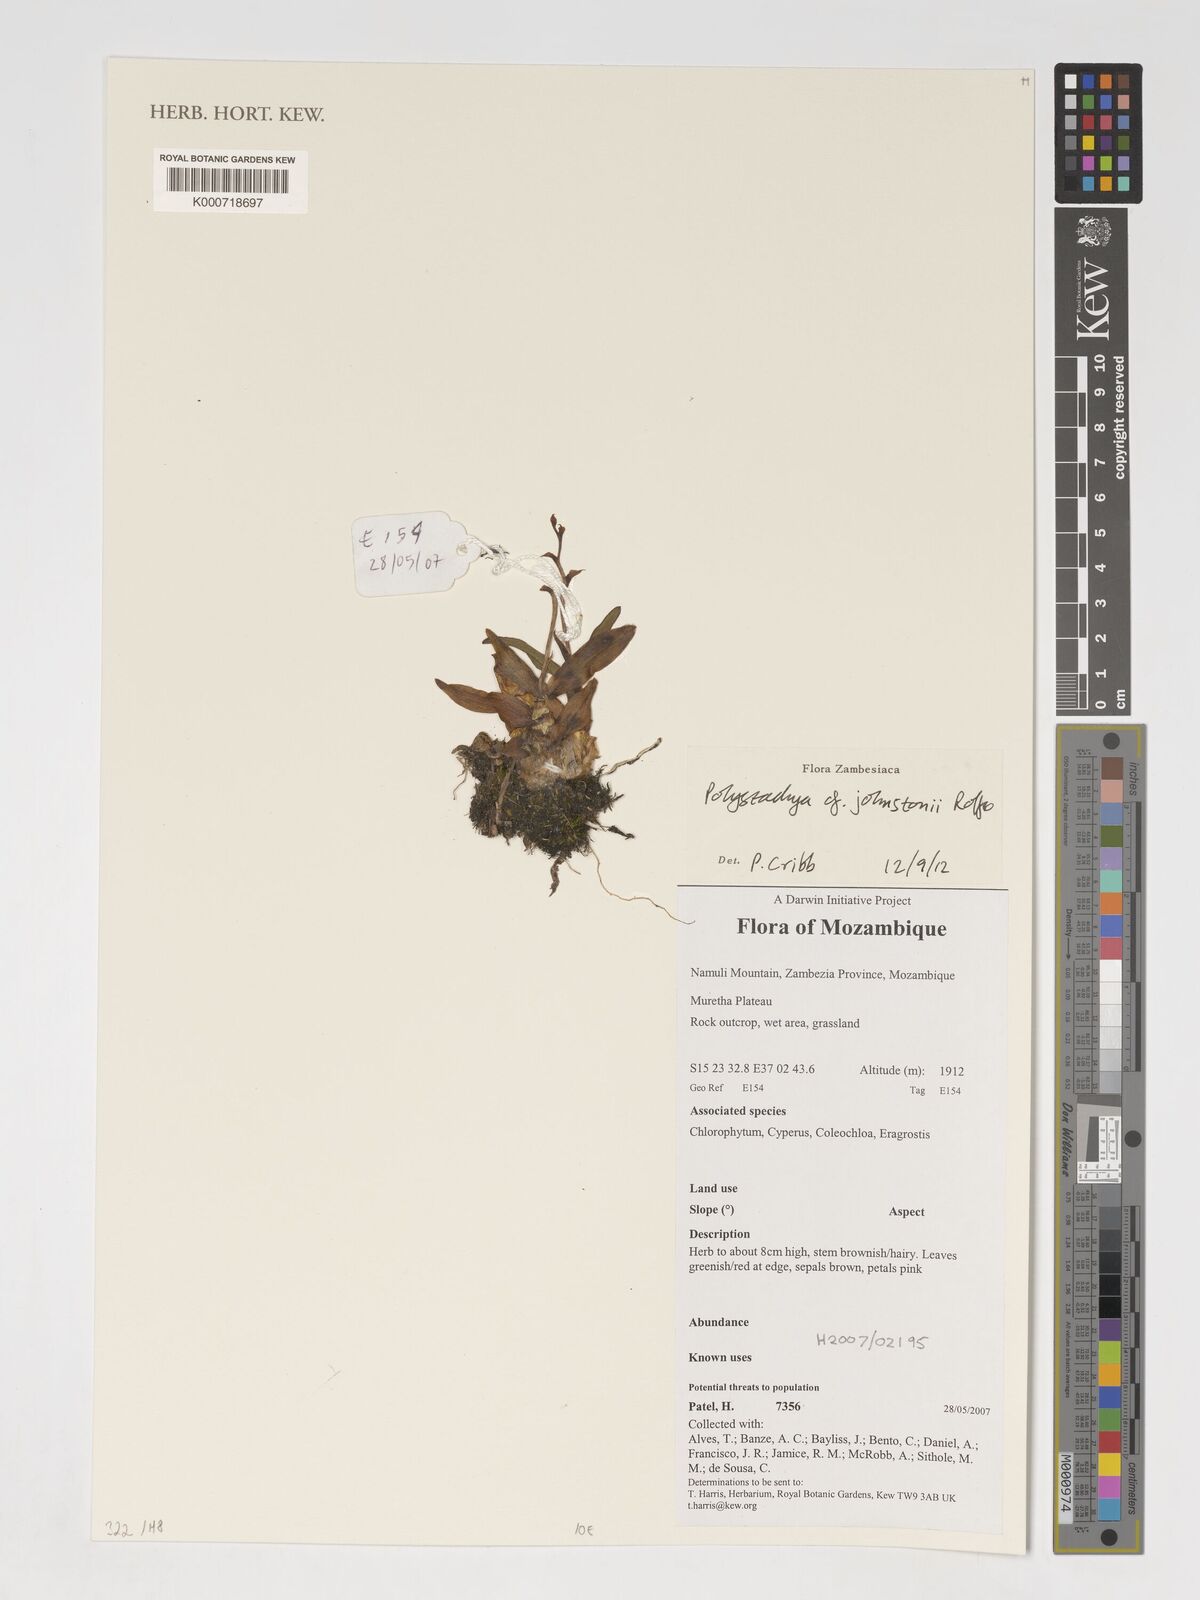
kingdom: Plantae
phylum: Tracheophyta
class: Liliopsida
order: Asparagales
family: Orchidaceae
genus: Polystachya
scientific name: Polystachya johnstonii
